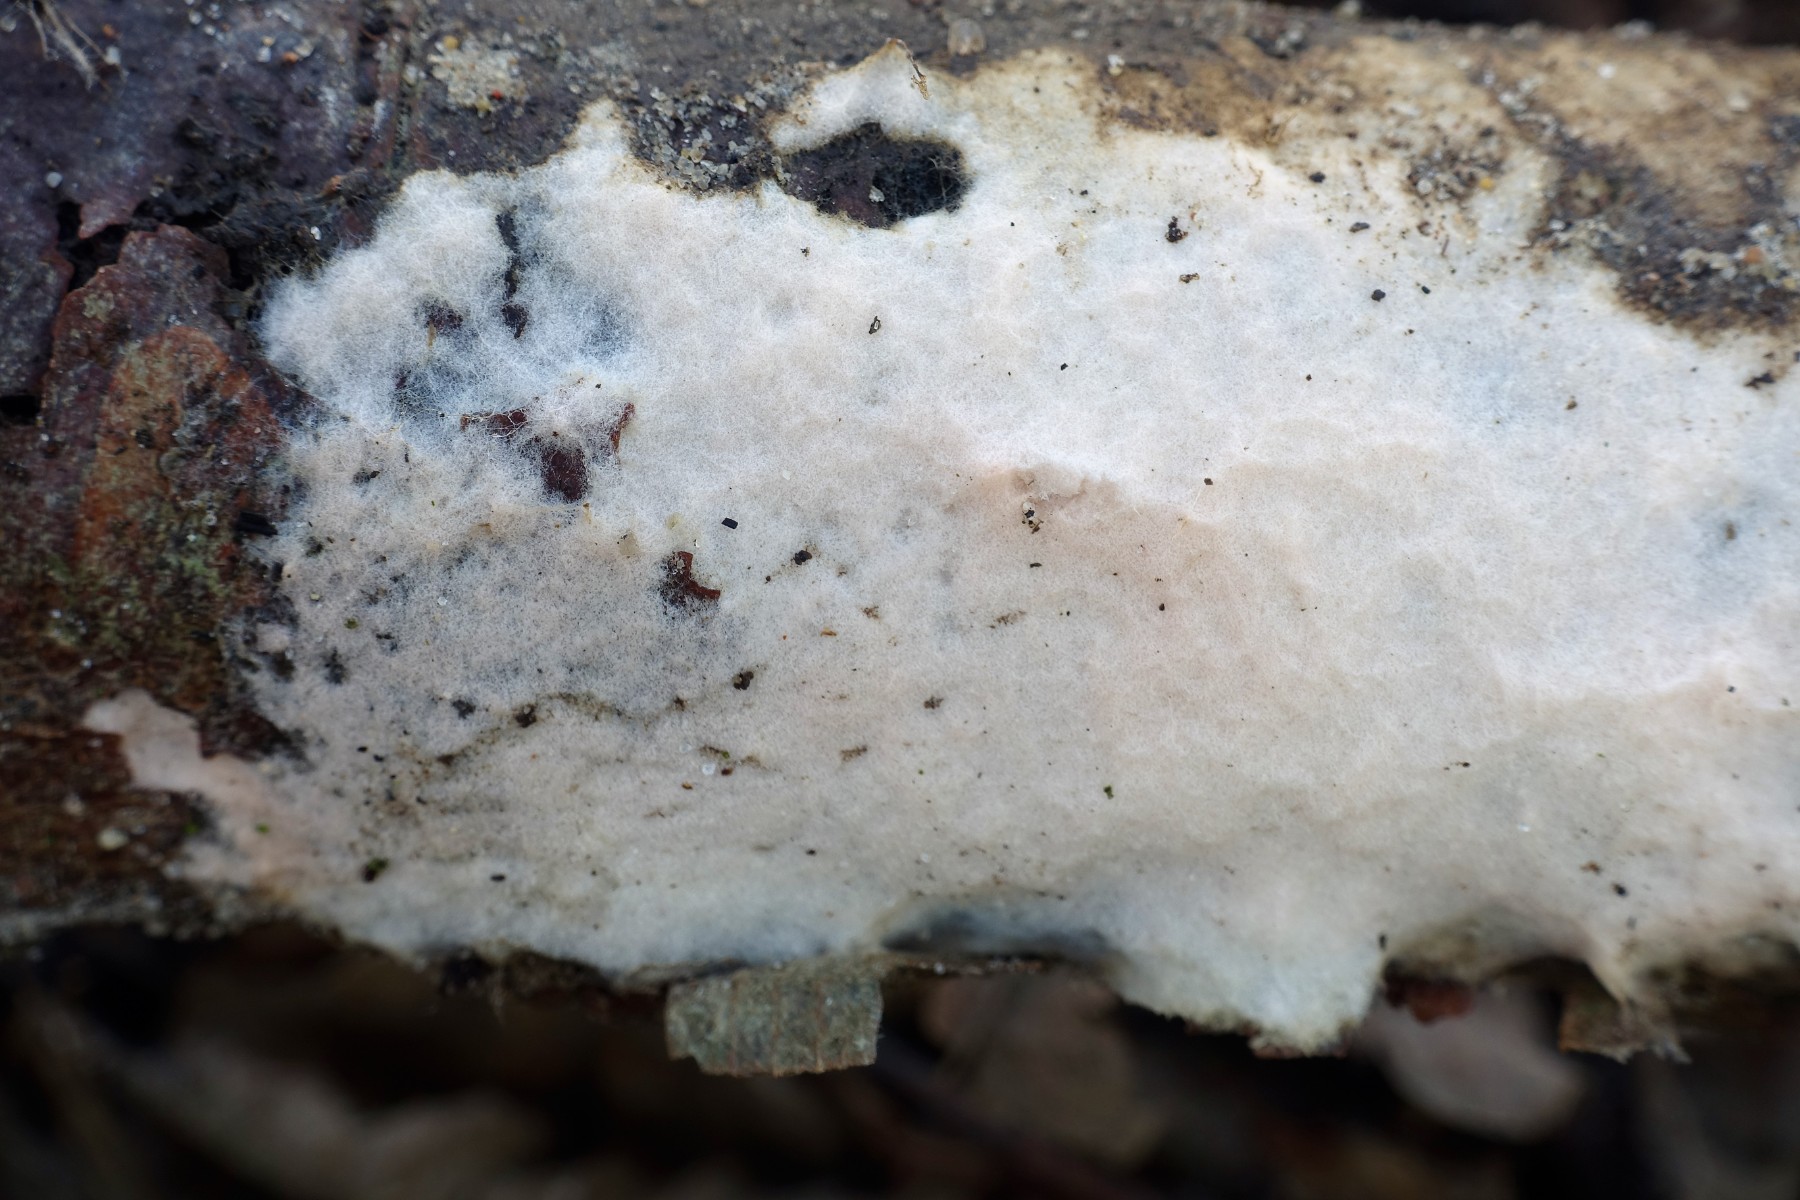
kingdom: Fungi
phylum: Basidiomycota
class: Agaricomycetes
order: Corticiales
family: Corticiaceae
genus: Erythricium
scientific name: Erythricium laetum
